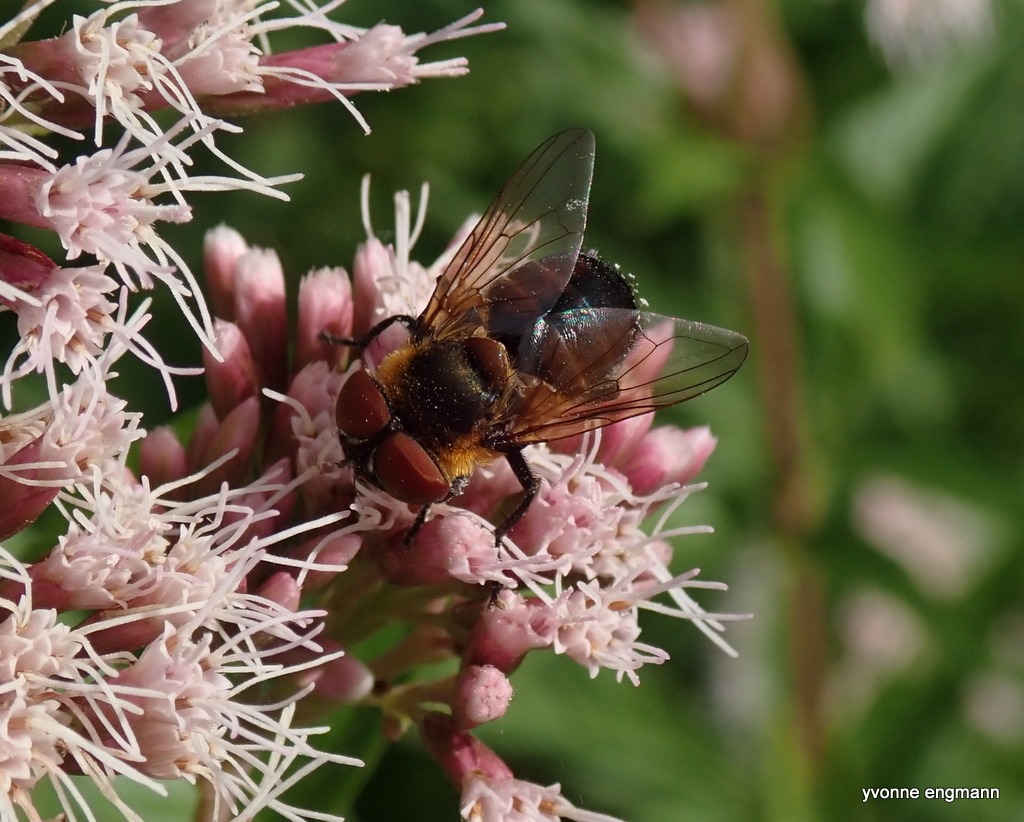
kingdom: Animalia
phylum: Arthropoda
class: Insecta
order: Diptera
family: Tachinidae
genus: Phasia
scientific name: Phasia hemiptera
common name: Blåvinget pragtsnylteflue
